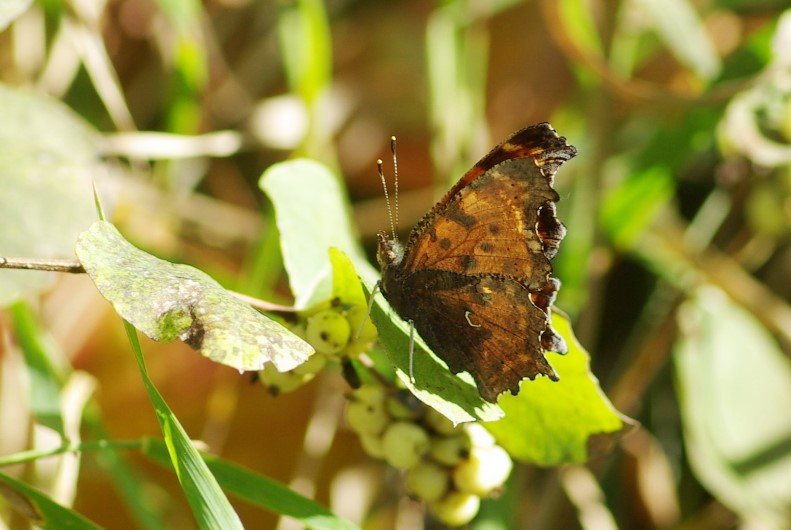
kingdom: Animalia
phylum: Arthropoda
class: Insecta
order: Lepidoptera
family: Nymphalidae
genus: Polygonia
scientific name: Polygonia satyrus
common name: Satyr Comma
